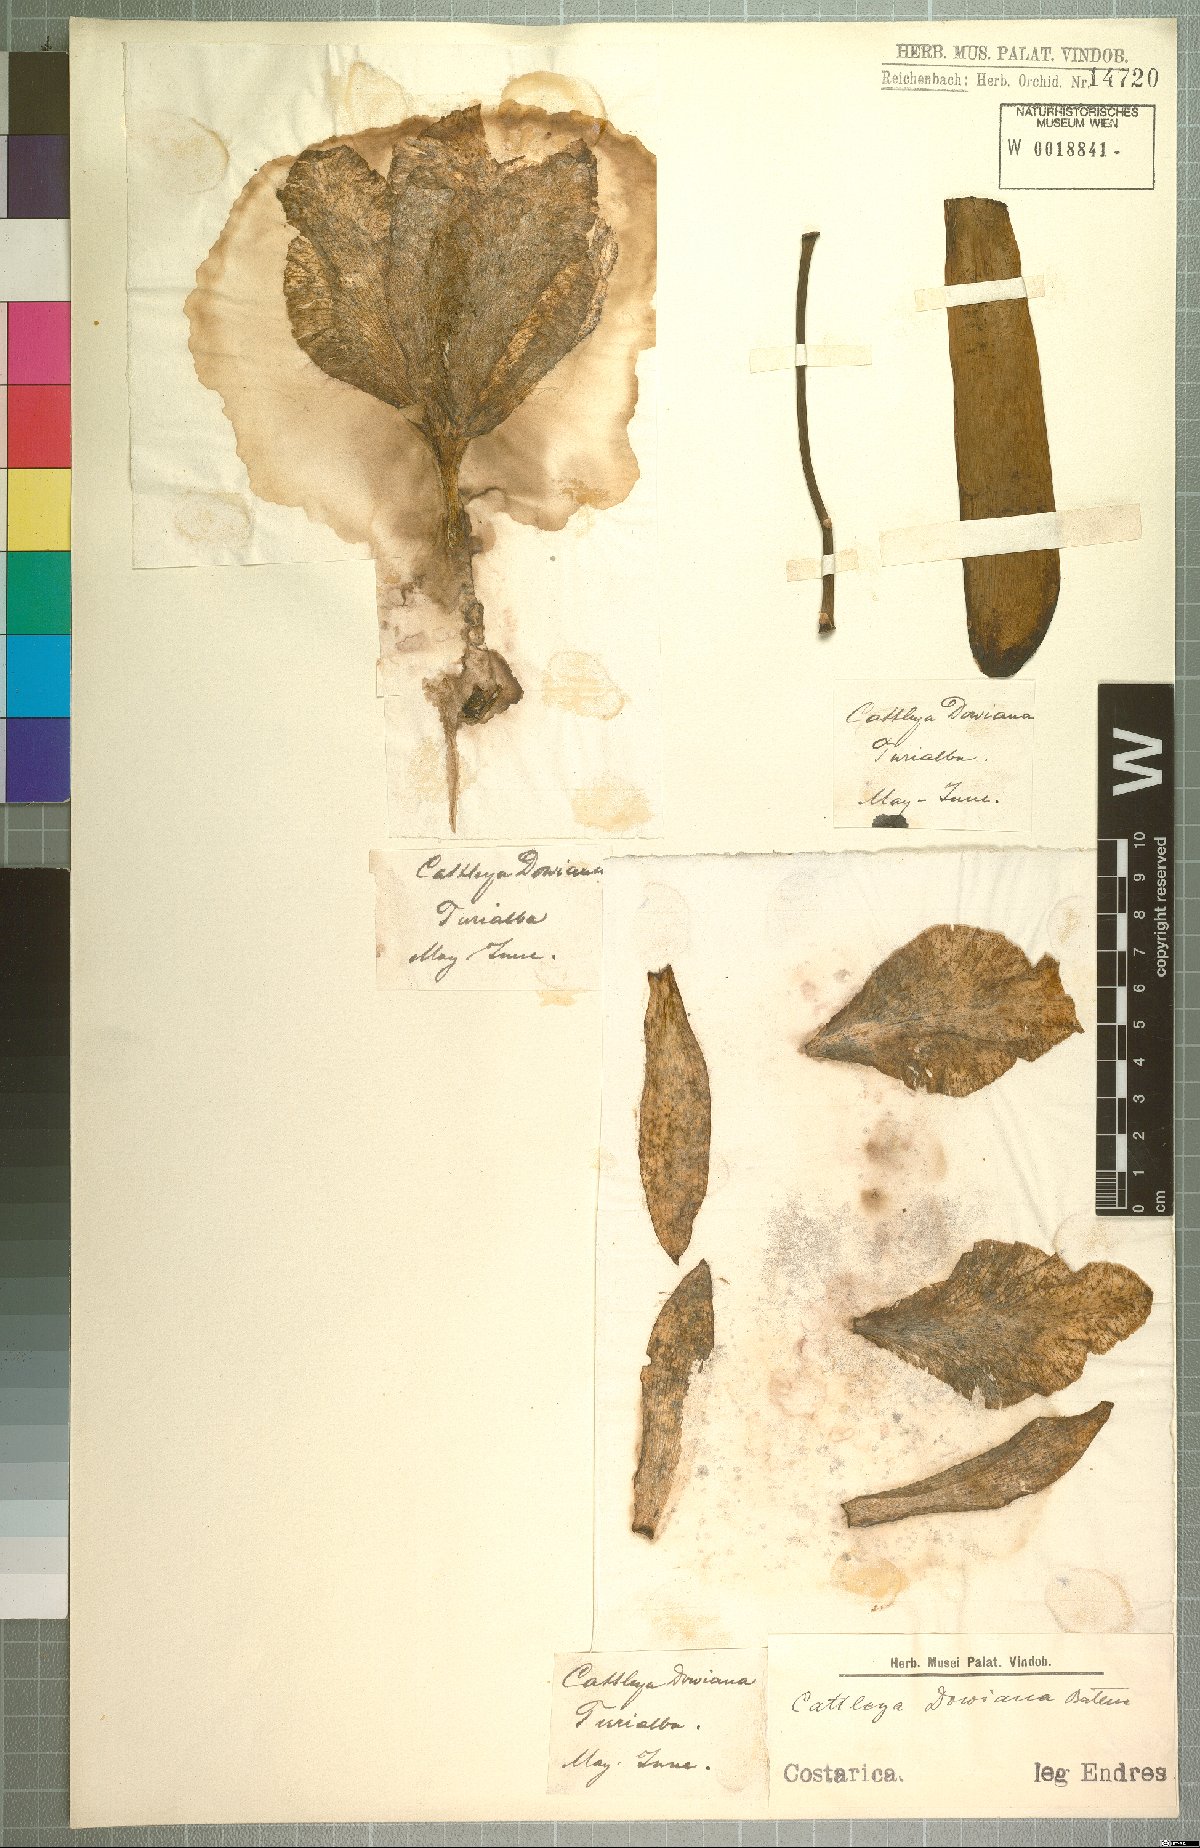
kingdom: Plantae
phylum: Tracheophyta
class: Liliopsida
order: Asparagales
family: Orchidaceae
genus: Cattleya
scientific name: Cattleya dowiana
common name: Queen cattleya
